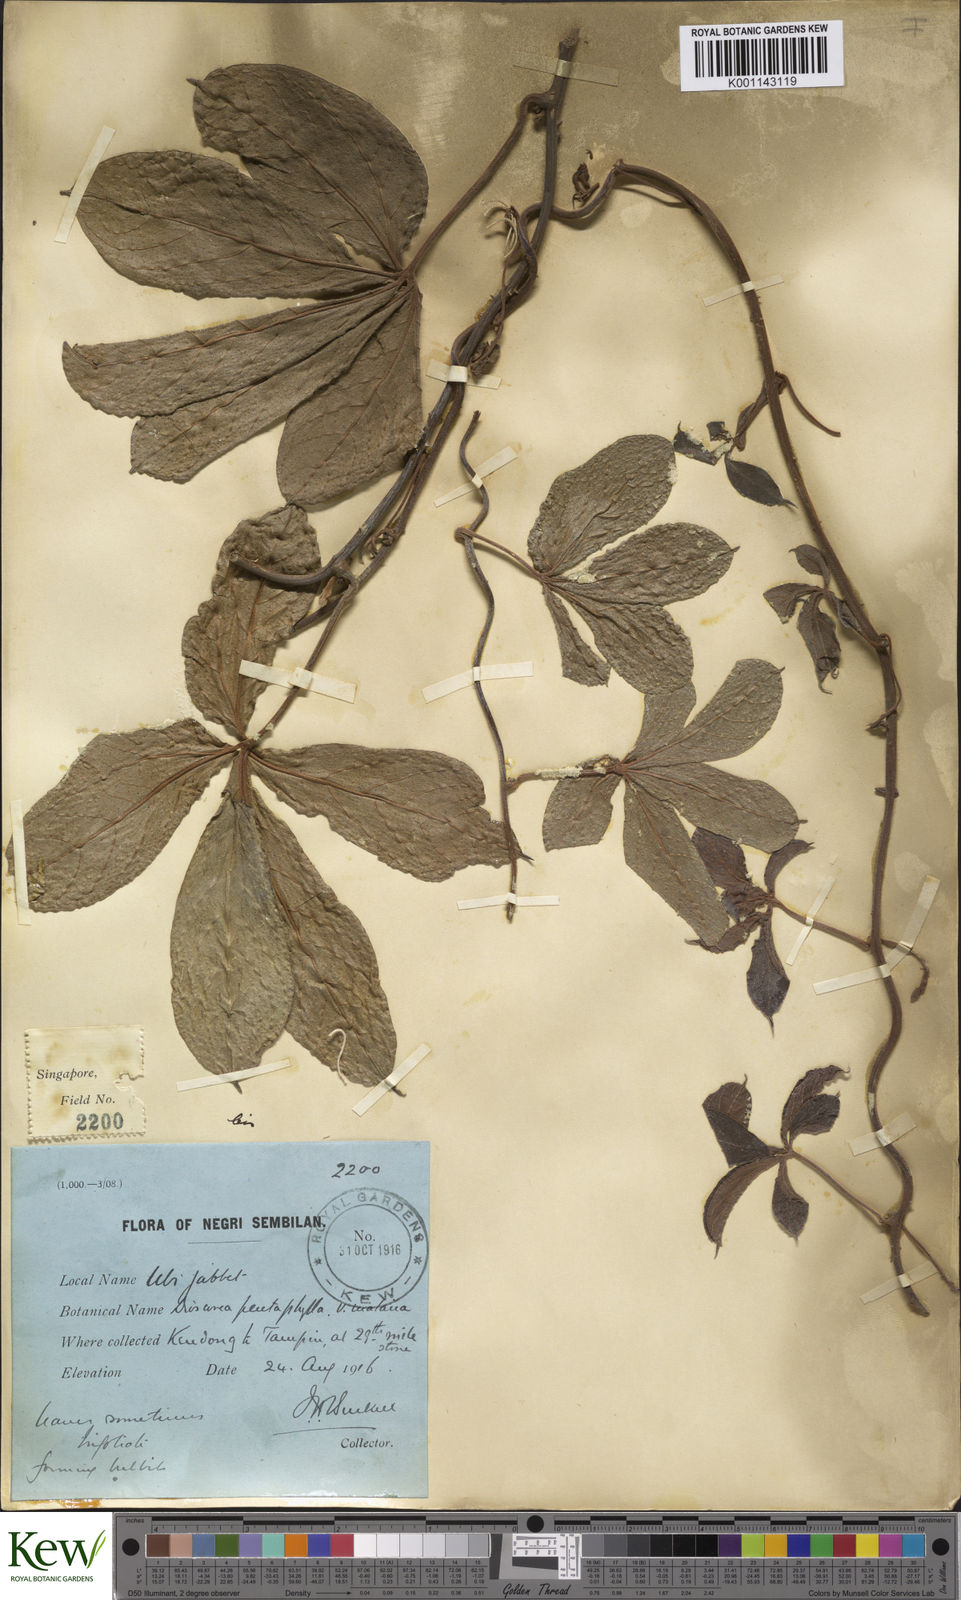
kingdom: Plantae
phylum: Tracheophyta
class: Liliopsida
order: Dioscoreales
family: Dioscoreaceae
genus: Dioscorea
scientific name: Dioscorea pentaphylla
